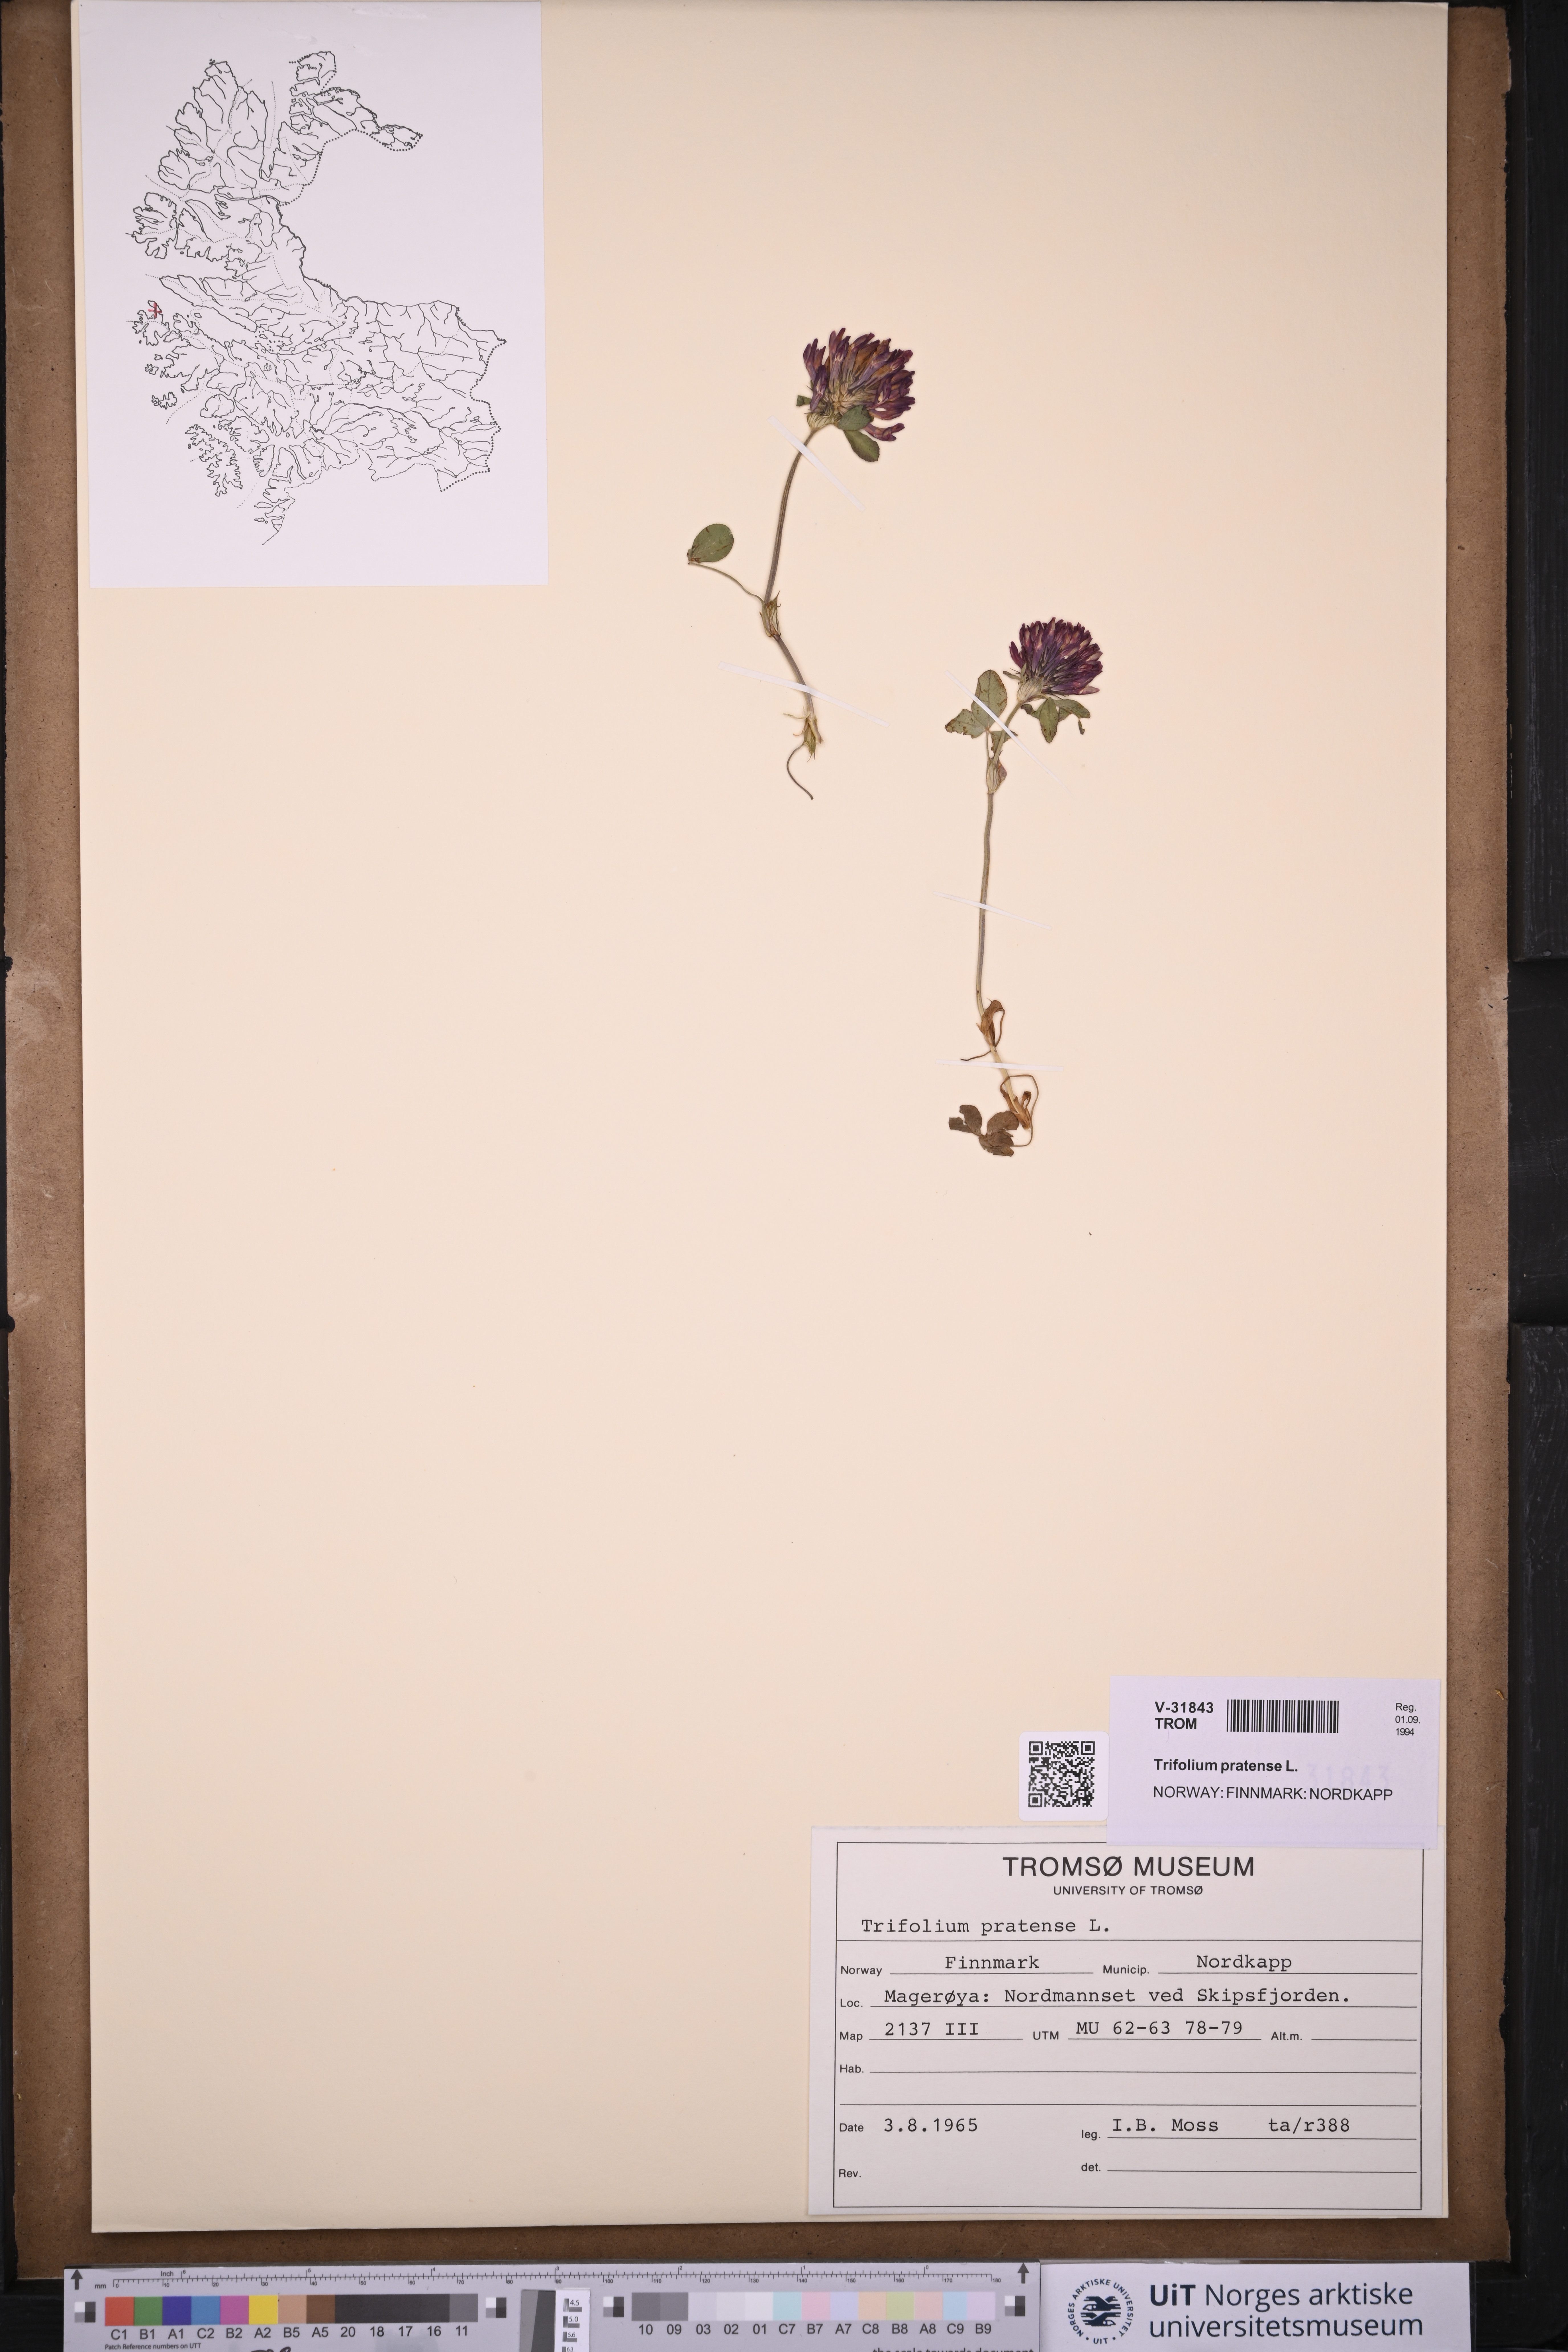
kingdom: Plantae
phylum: Tracheophyta
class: Magnoliopsida
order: Fabales
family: Fabaceae
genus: Trifolium
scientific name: Trifolium pratense
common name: Red clover
